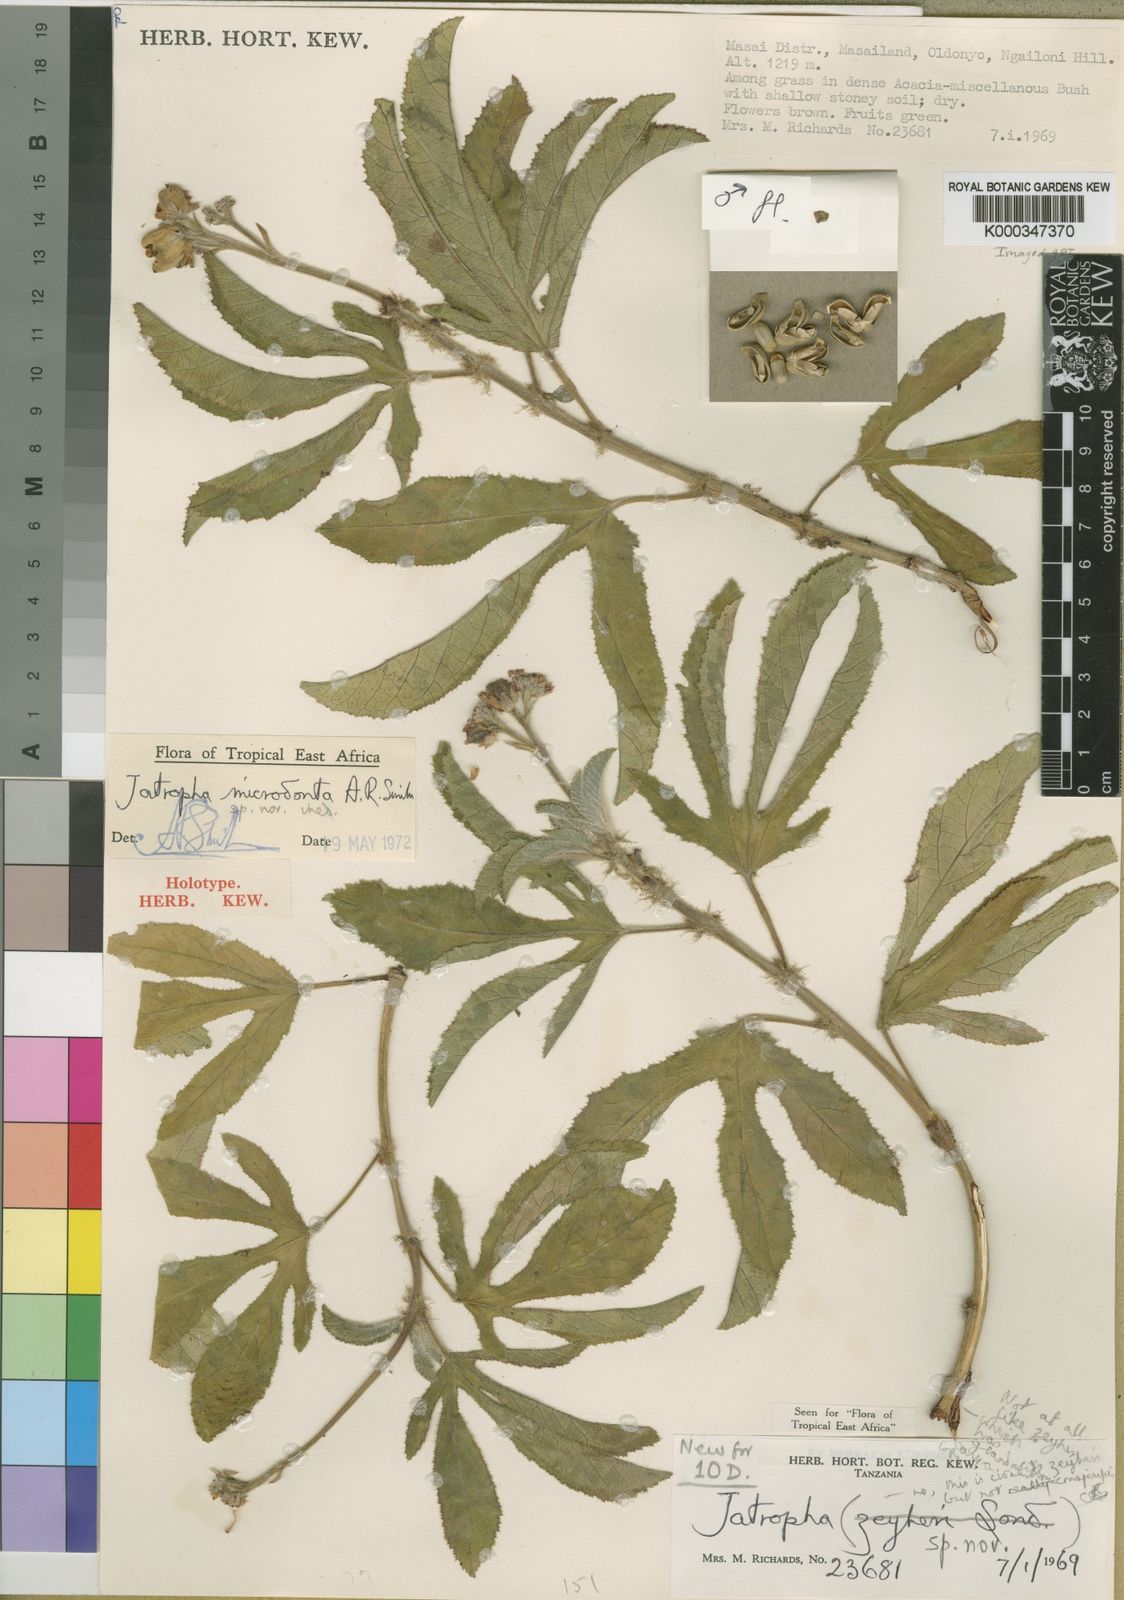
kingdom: Plantae
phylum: Tracheophyta
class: Magnoliopsida
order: Malpighiales
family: Euphorbiaceae
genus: Jatropha
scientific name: Jatropha microdonta
